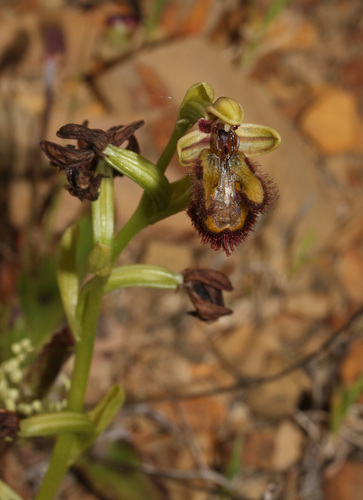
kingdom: Plantae
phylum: Tracheophyta
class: Liliopsida
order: Asparagales
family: Orchidaceae
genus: Ophrys
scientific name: Ophrys speculum
